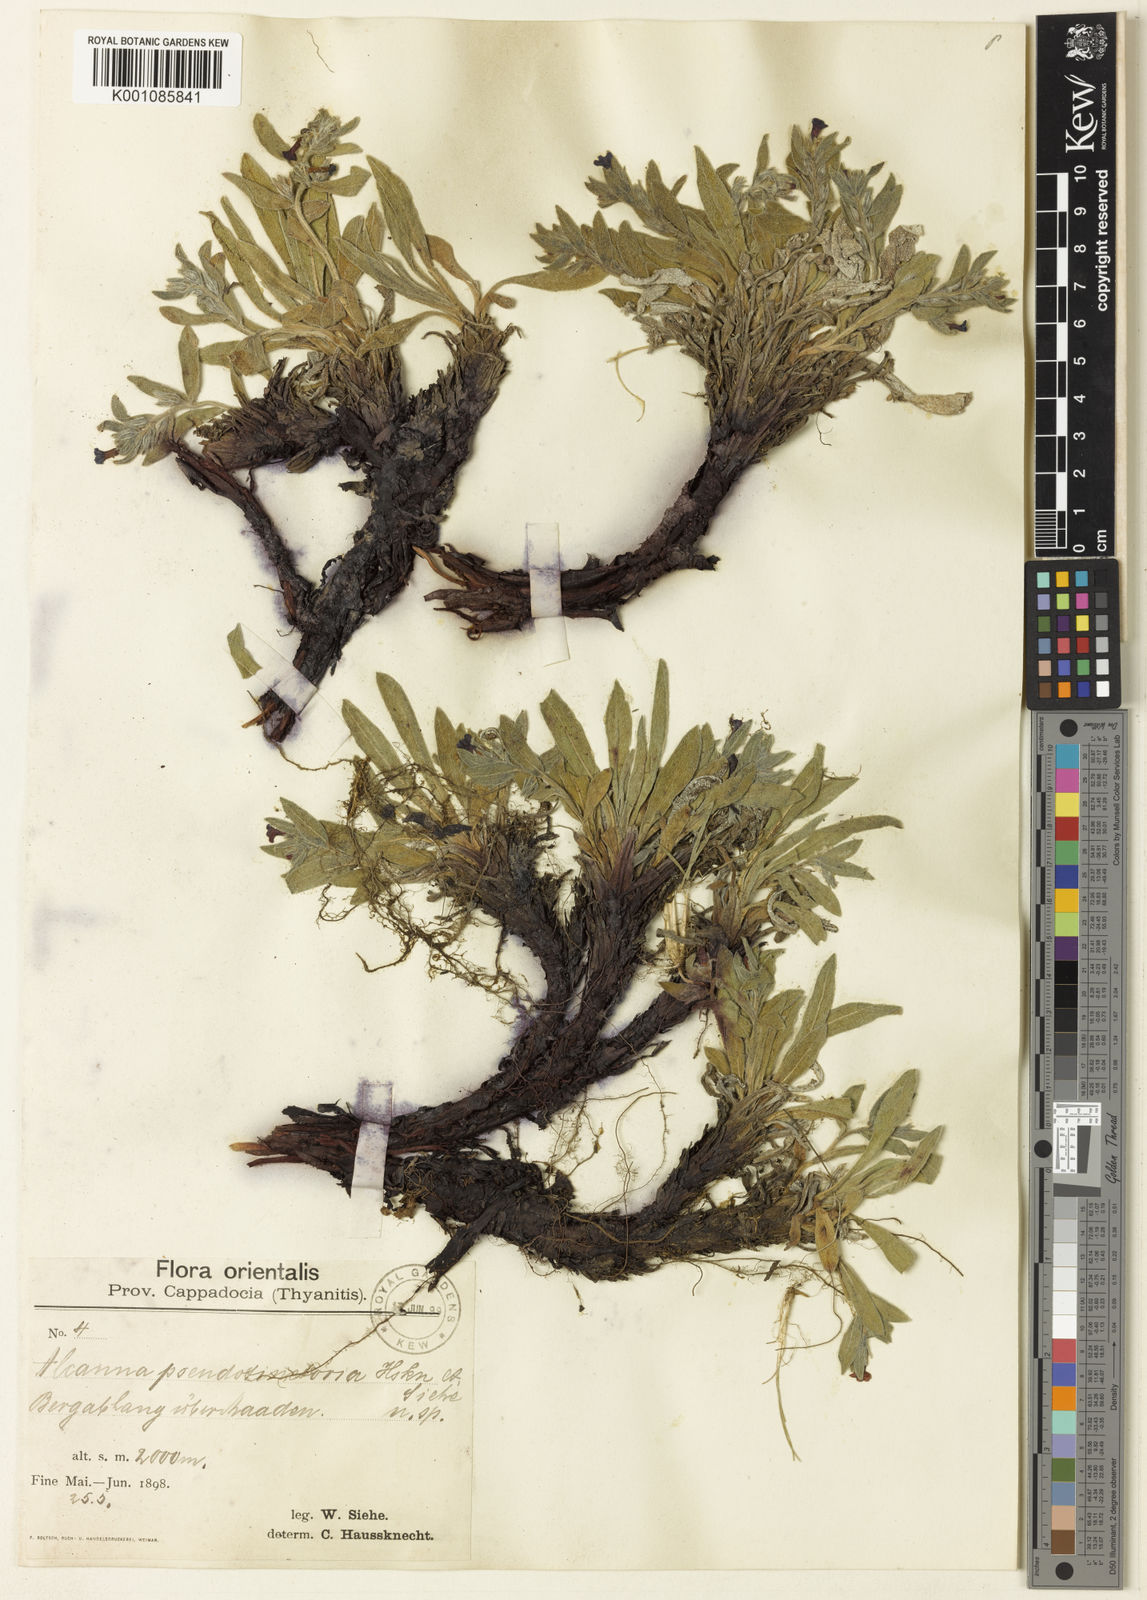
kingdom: Plantae
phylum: Tracheophyta
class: Magnoliopsida
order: Boraginales
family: Boraginaceae
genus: Alkanna
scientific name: Alkanna pseudotinctoria
